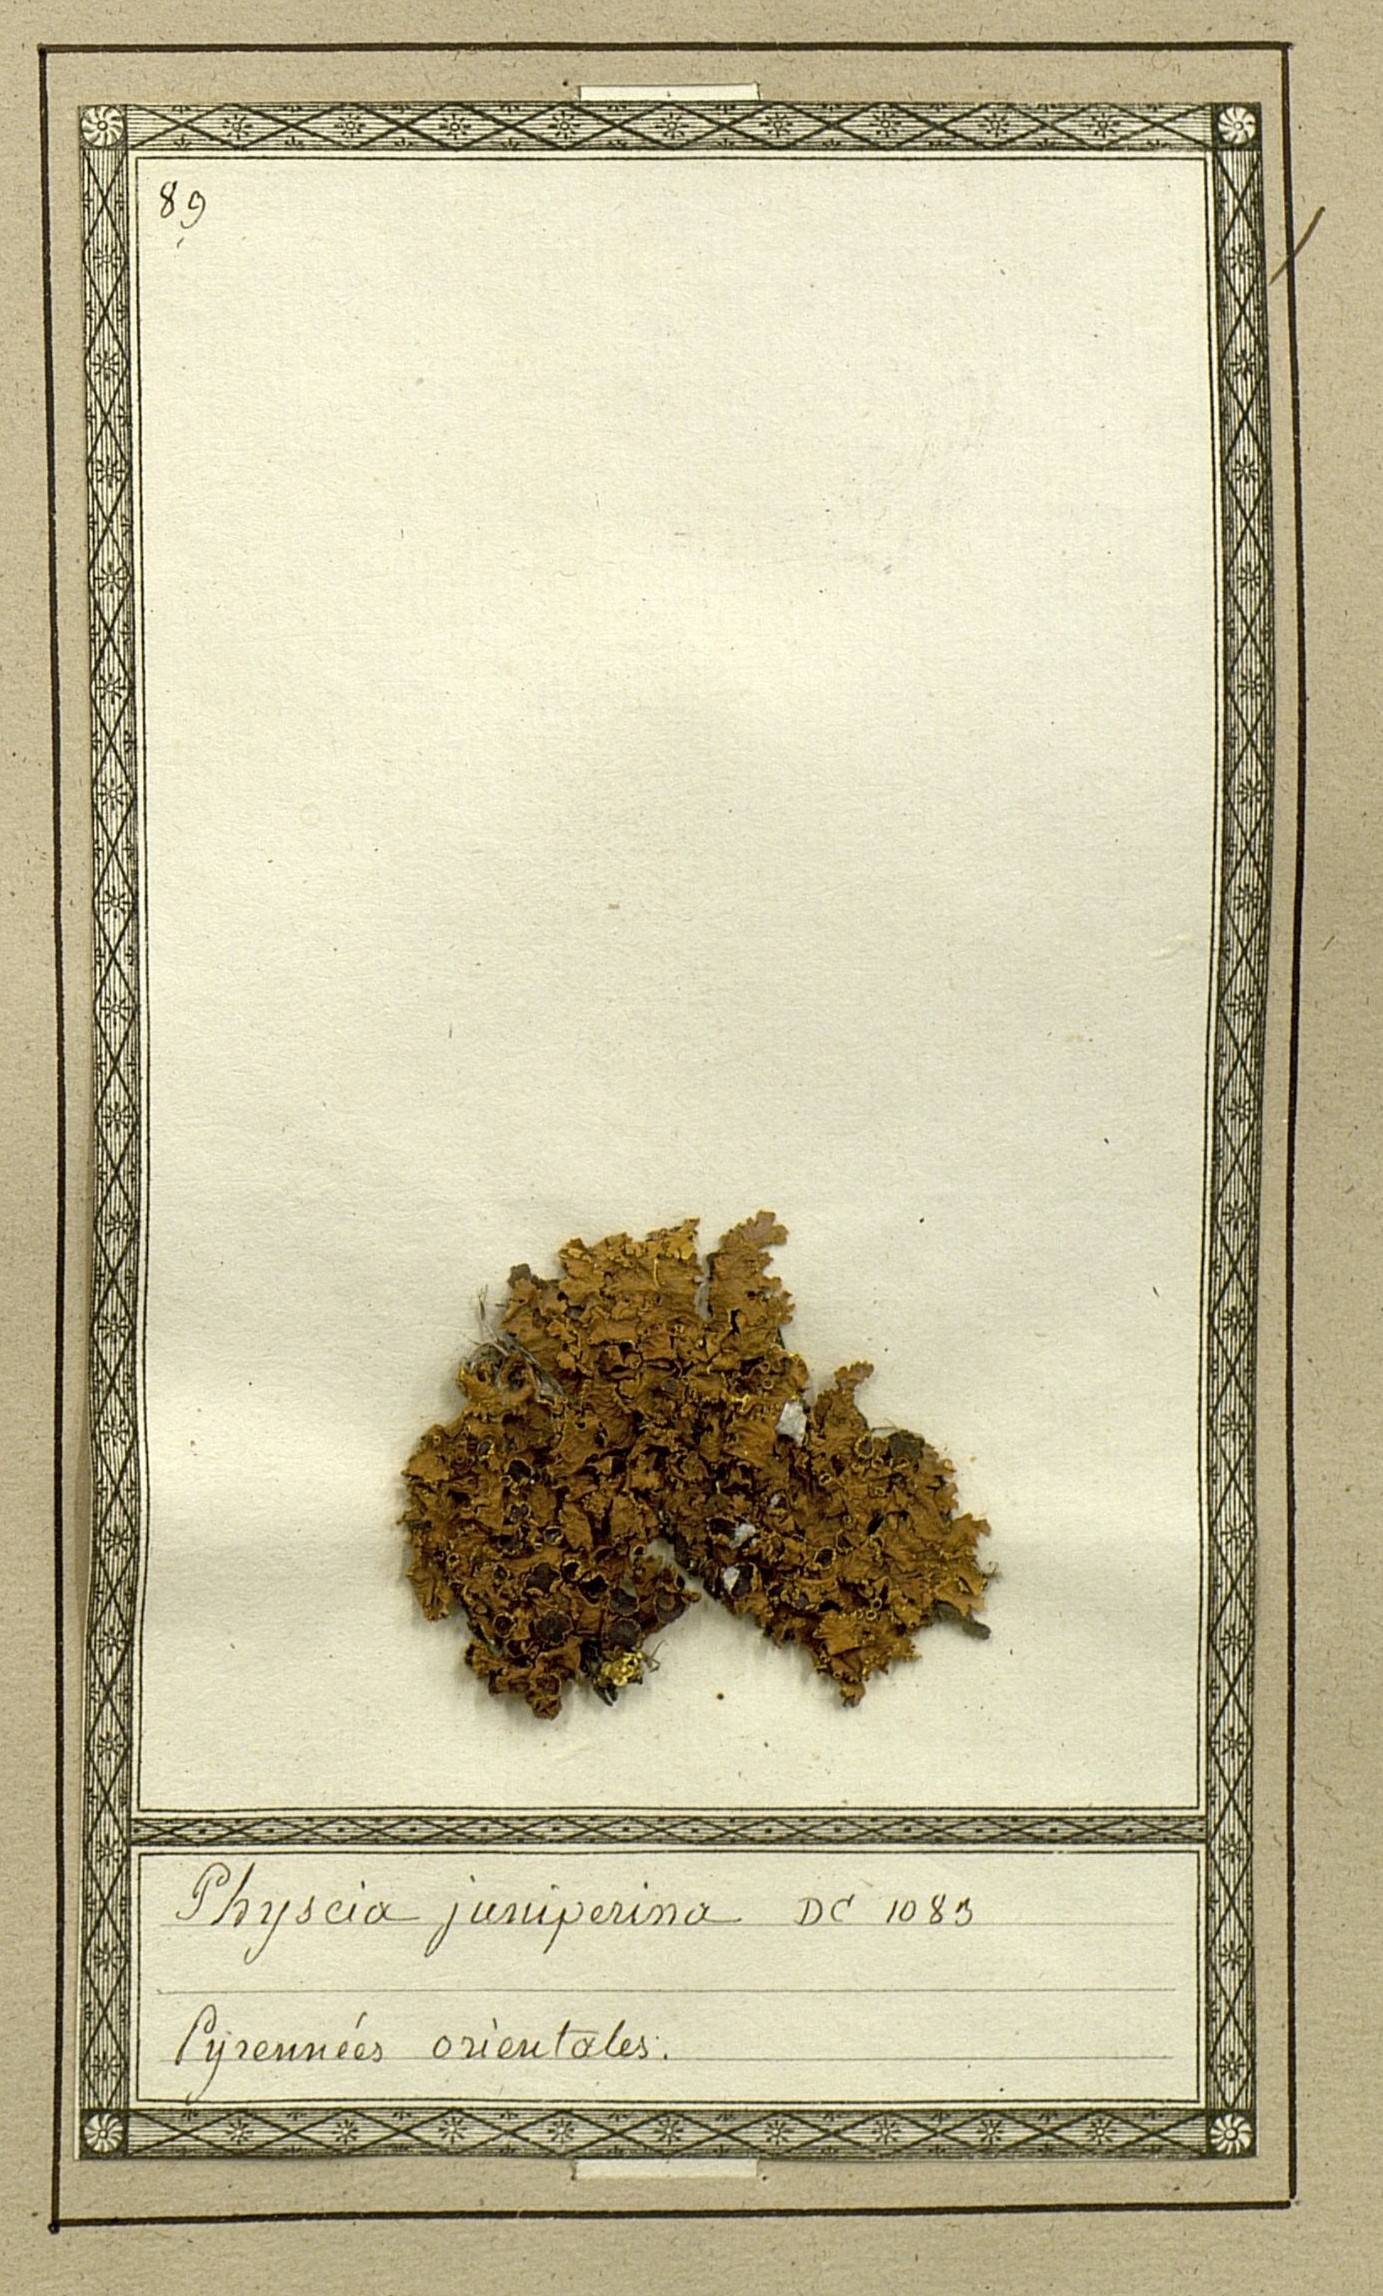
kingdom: Fungi
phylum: Ascomycota
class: Lecanoromycetes
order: Lecanorales
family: Parmeliaceae
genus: Vulpicida
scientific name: Vulpicida juniperinus
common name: Yellow lichen
